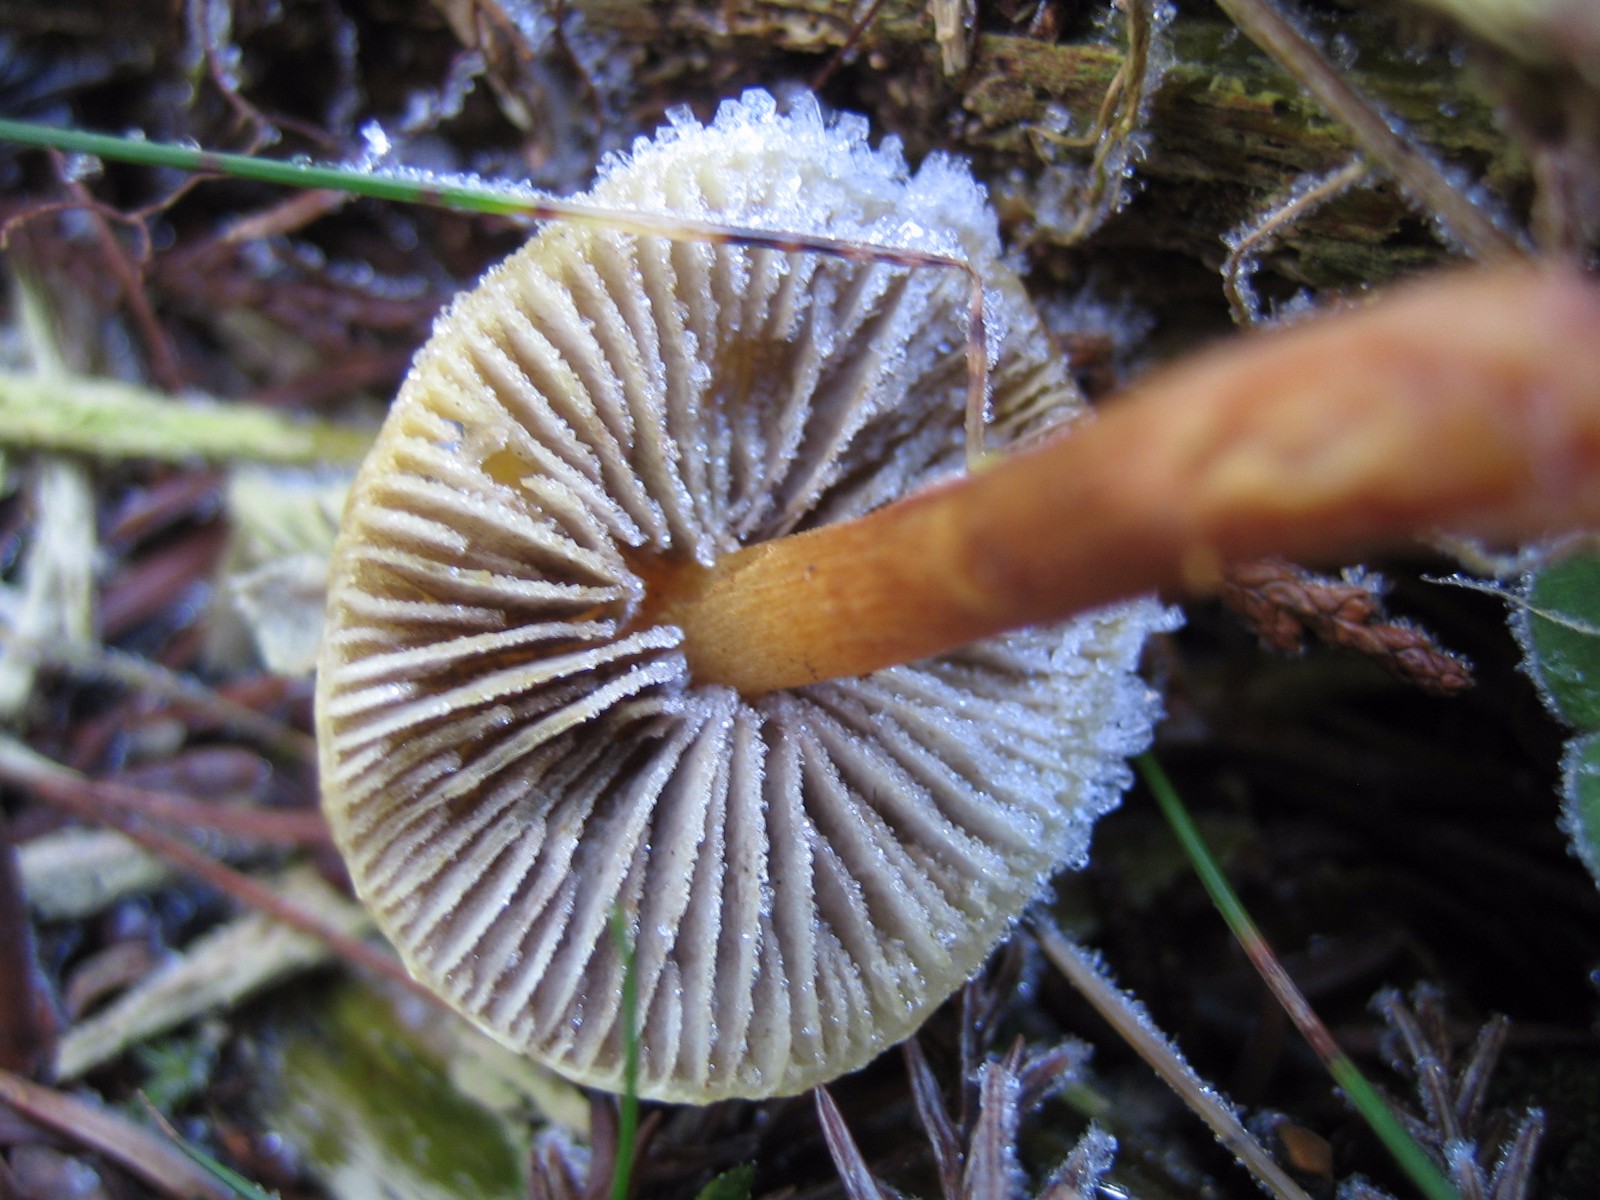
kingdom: Fungi
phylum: Basidiomycota
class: Agaricomycetes
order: Agaricales
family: Hymenogastraceae
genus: Gymnopilus
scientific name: Gymnopilus penetrans
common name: plettet flammehat
